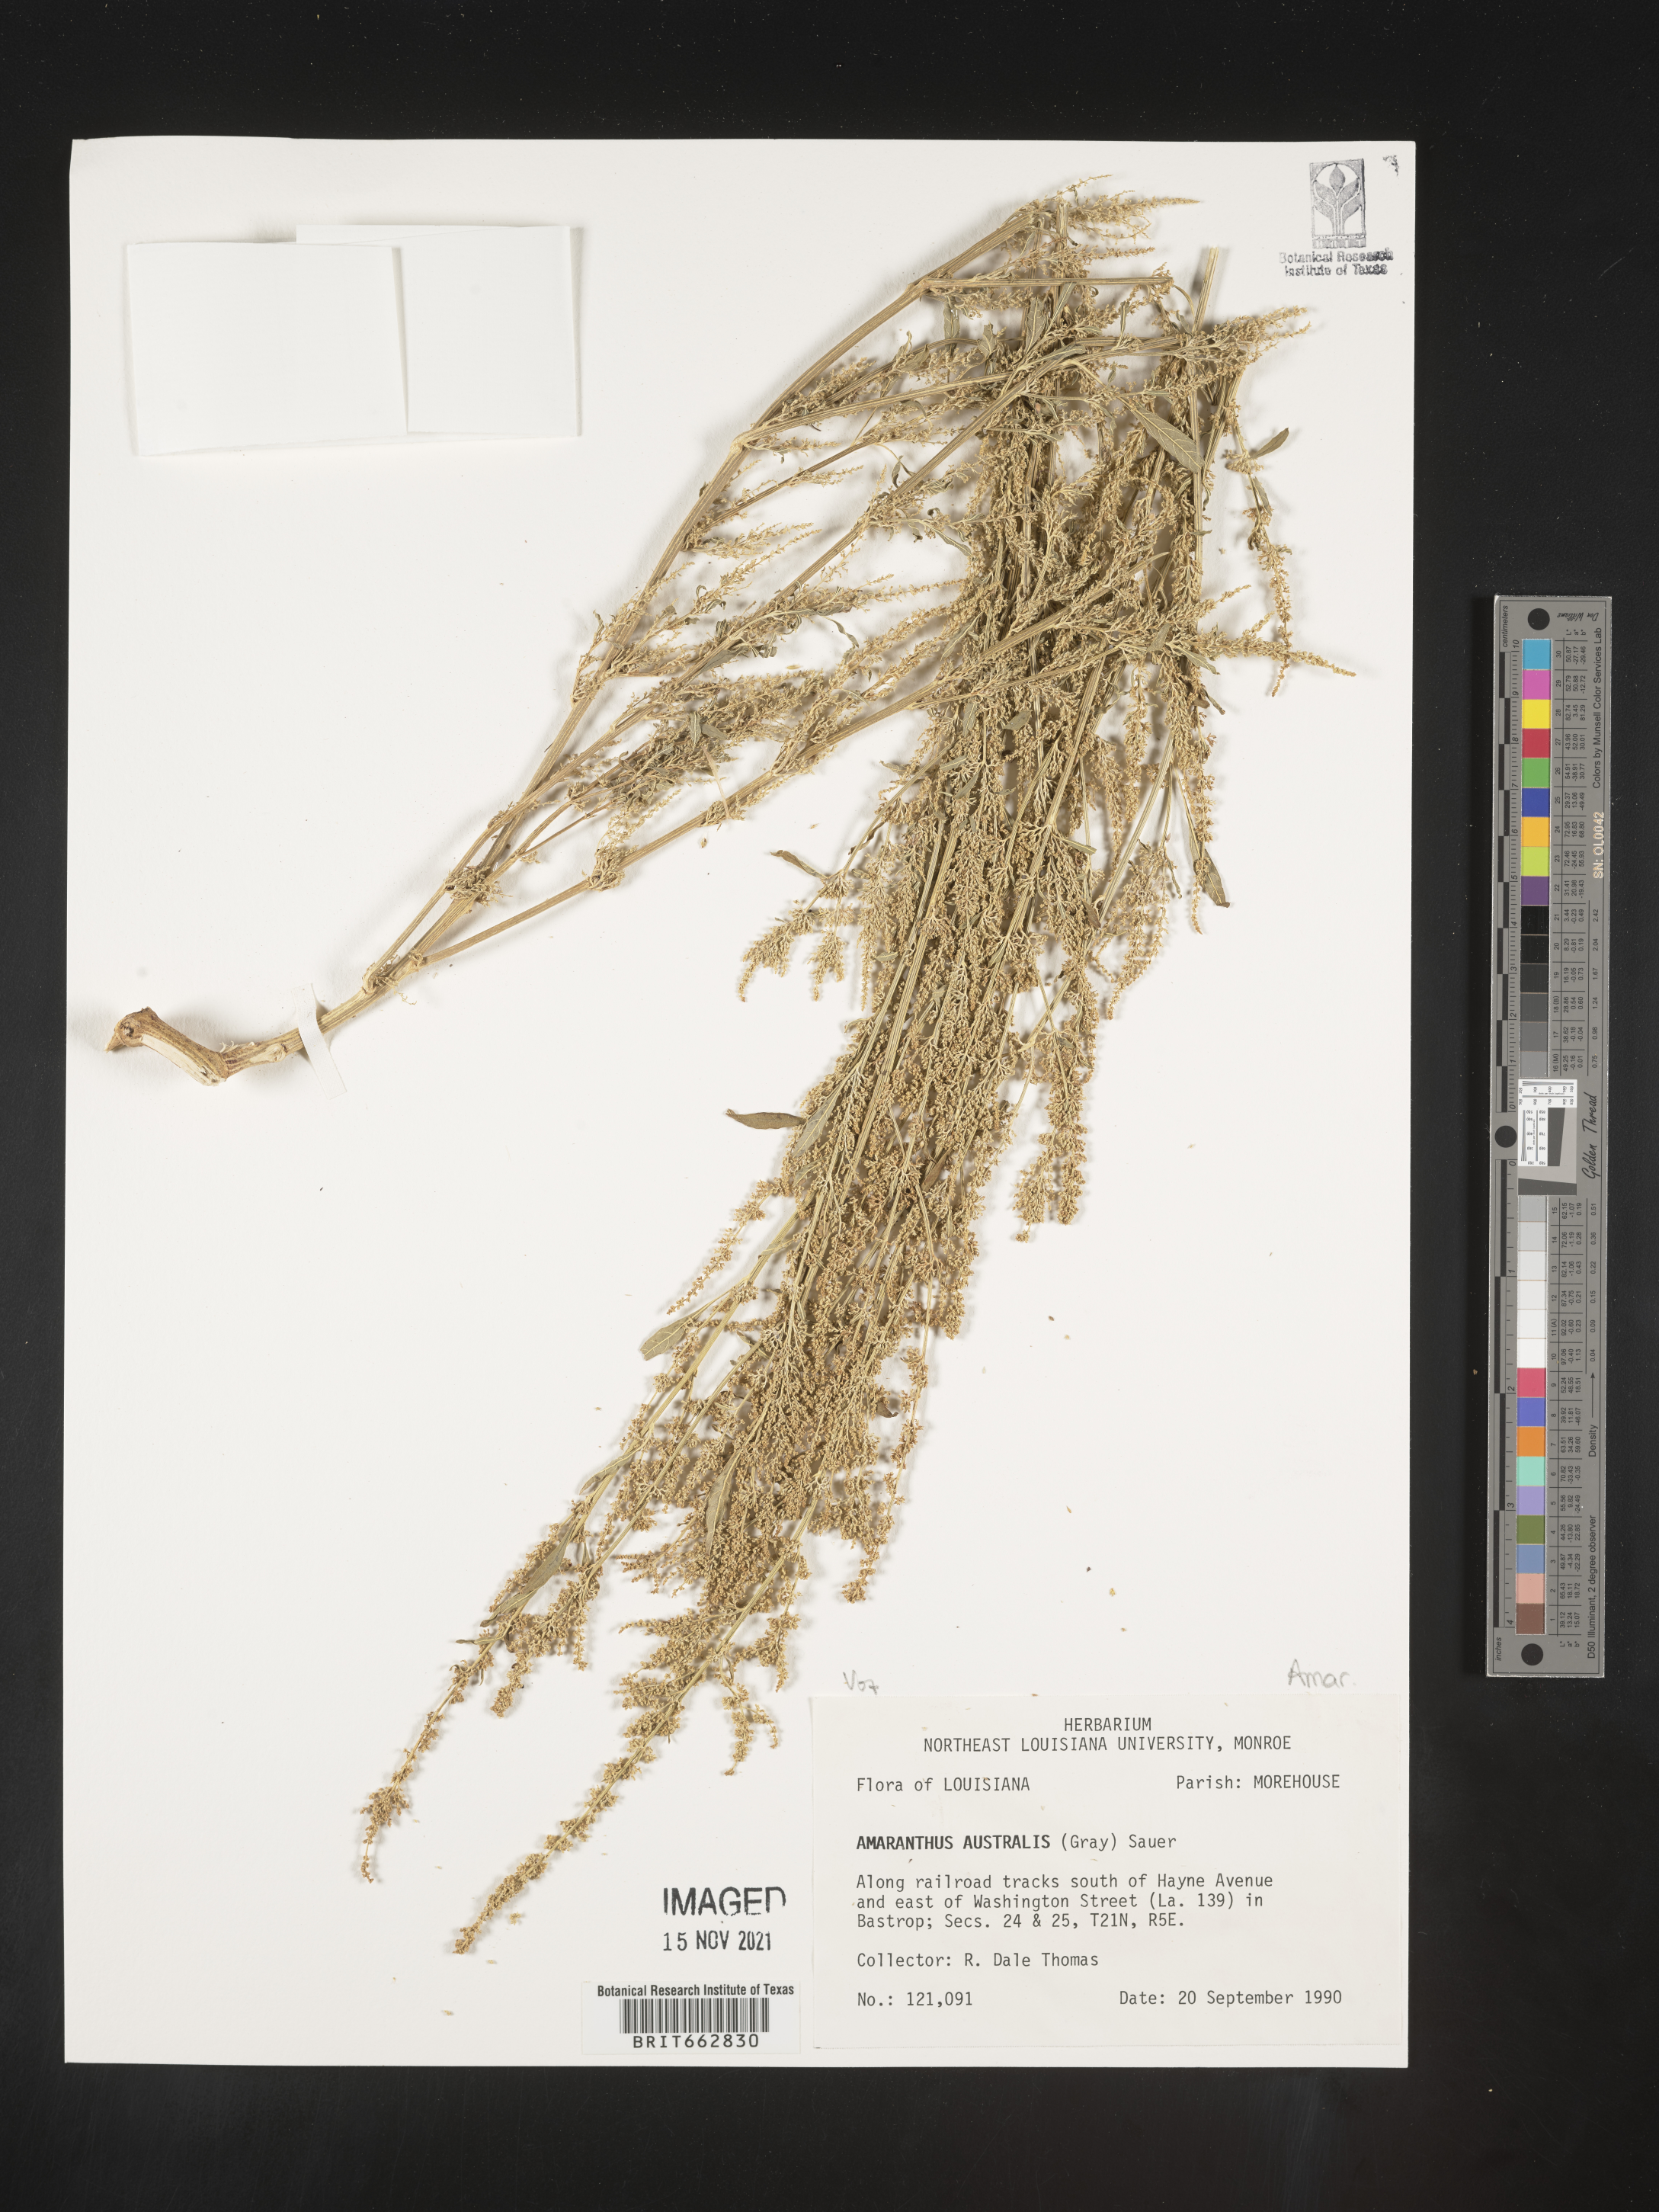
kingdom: Plantae
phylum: Tracheophyta
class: Magnoliopsida
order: Caryophyllales
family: Amaranthaceae
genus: Amaranthus
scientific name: Amaranthus australis
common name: Southern amaranth
